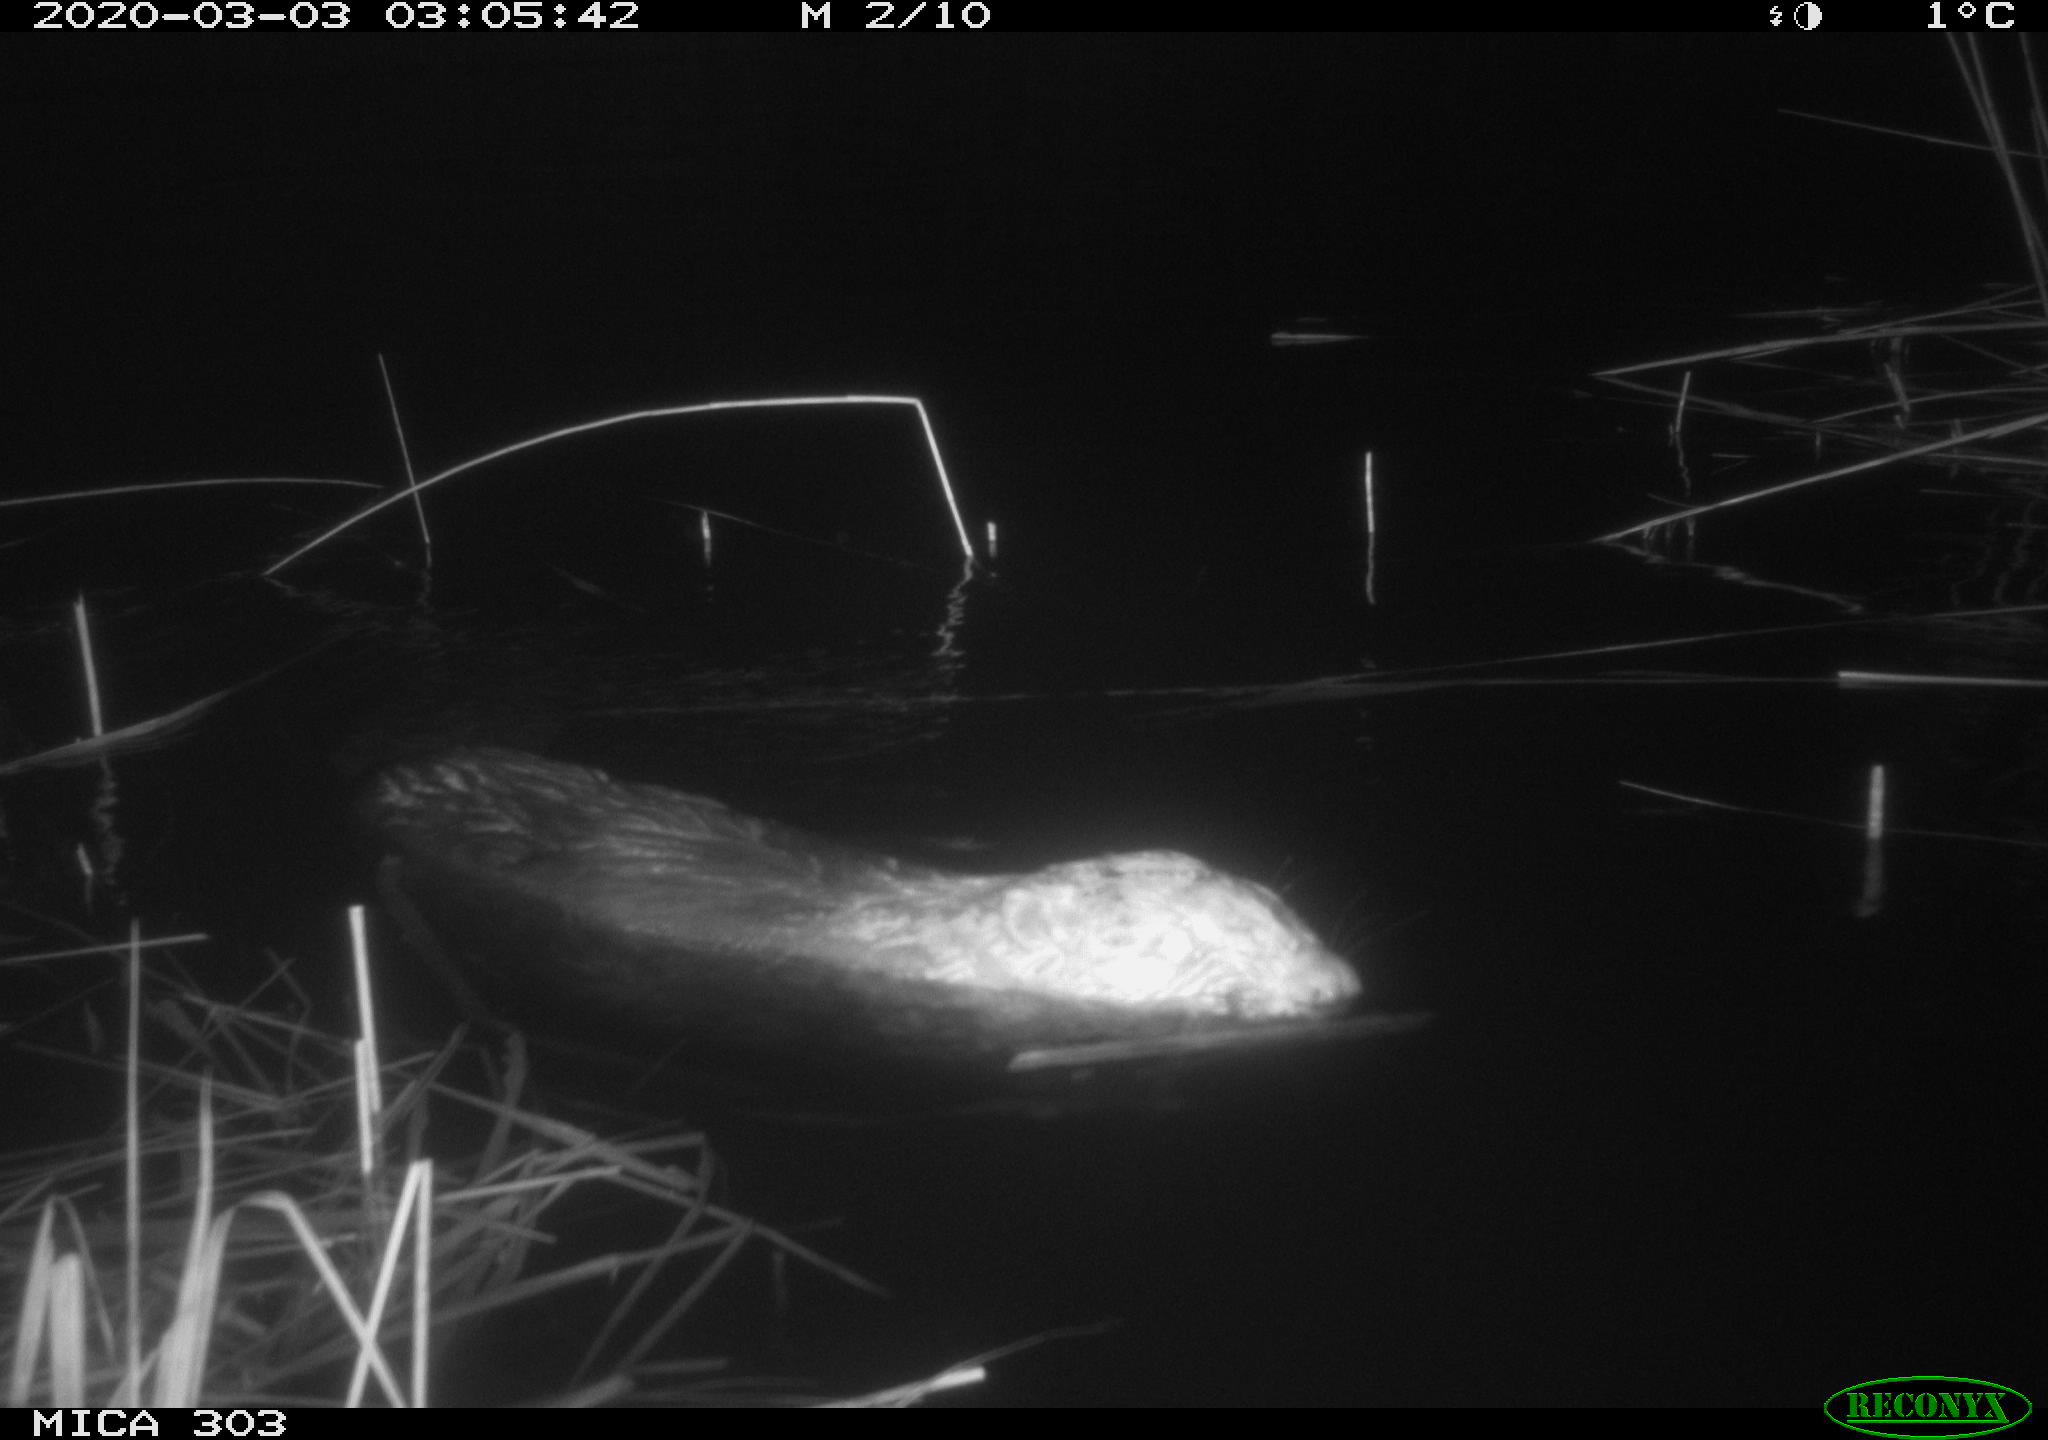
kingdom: Animalia
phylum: Chordata
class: Mammalia
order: Rodentia
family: Castoridae
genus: Castor
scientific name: Castor fiber
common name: Eurasian beaver
